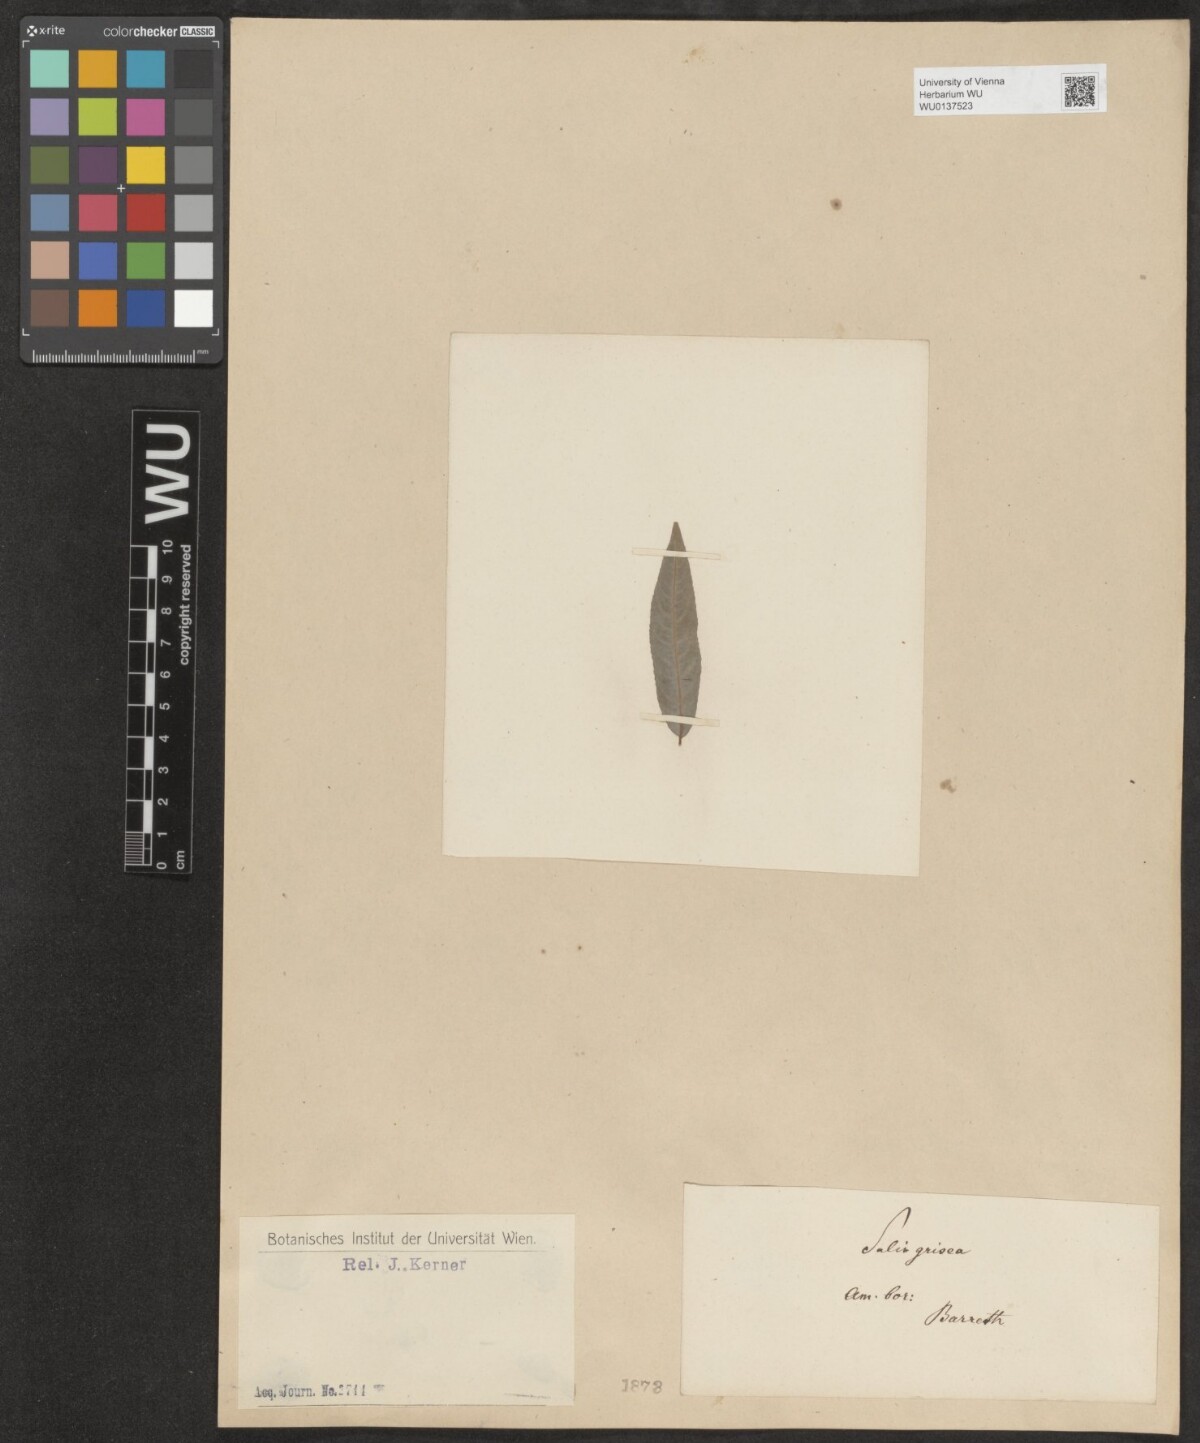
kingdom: Plantae
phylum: Tracheophyta
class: Magnoliopsida
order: Malpighiales
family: Salicaceae
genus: Salix
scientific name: Salix sericea
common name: Silky willow
